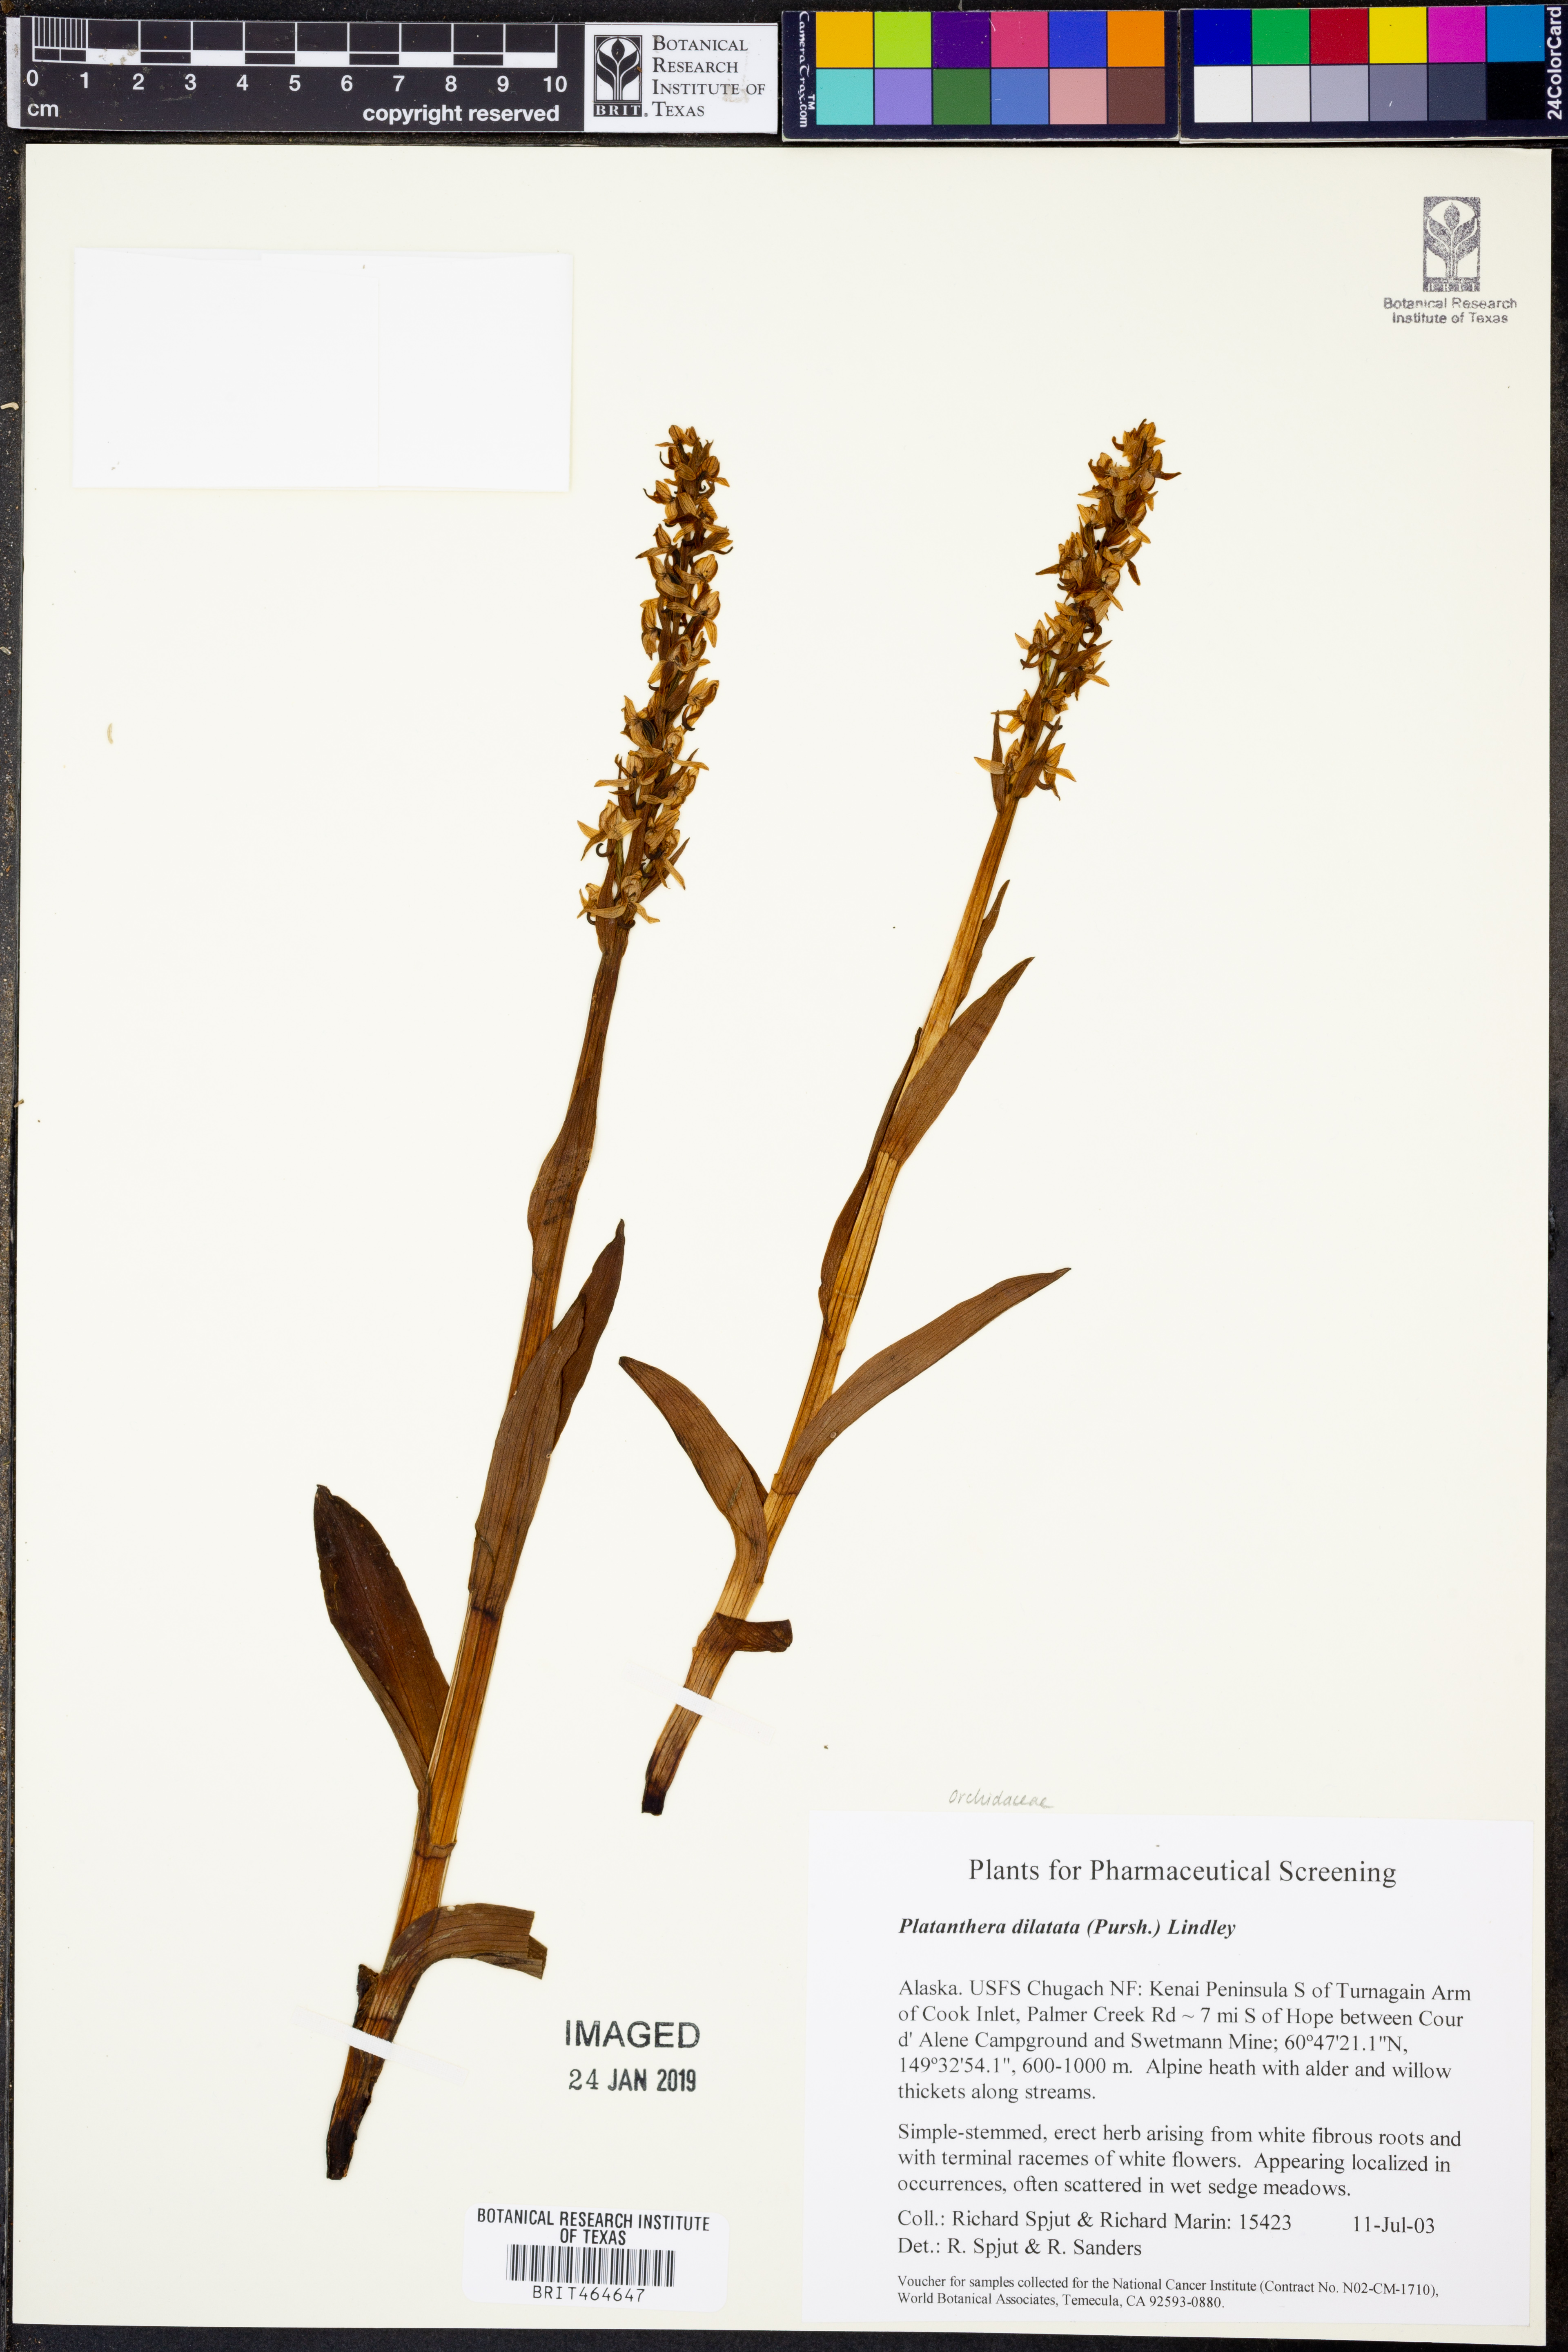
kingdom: Plantae
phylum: Tracheophyta
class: Liliopsida
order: Asparagales
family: Orchidaceae
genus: Platanthera
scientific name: Platanthera dilatata
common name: Bog candles
